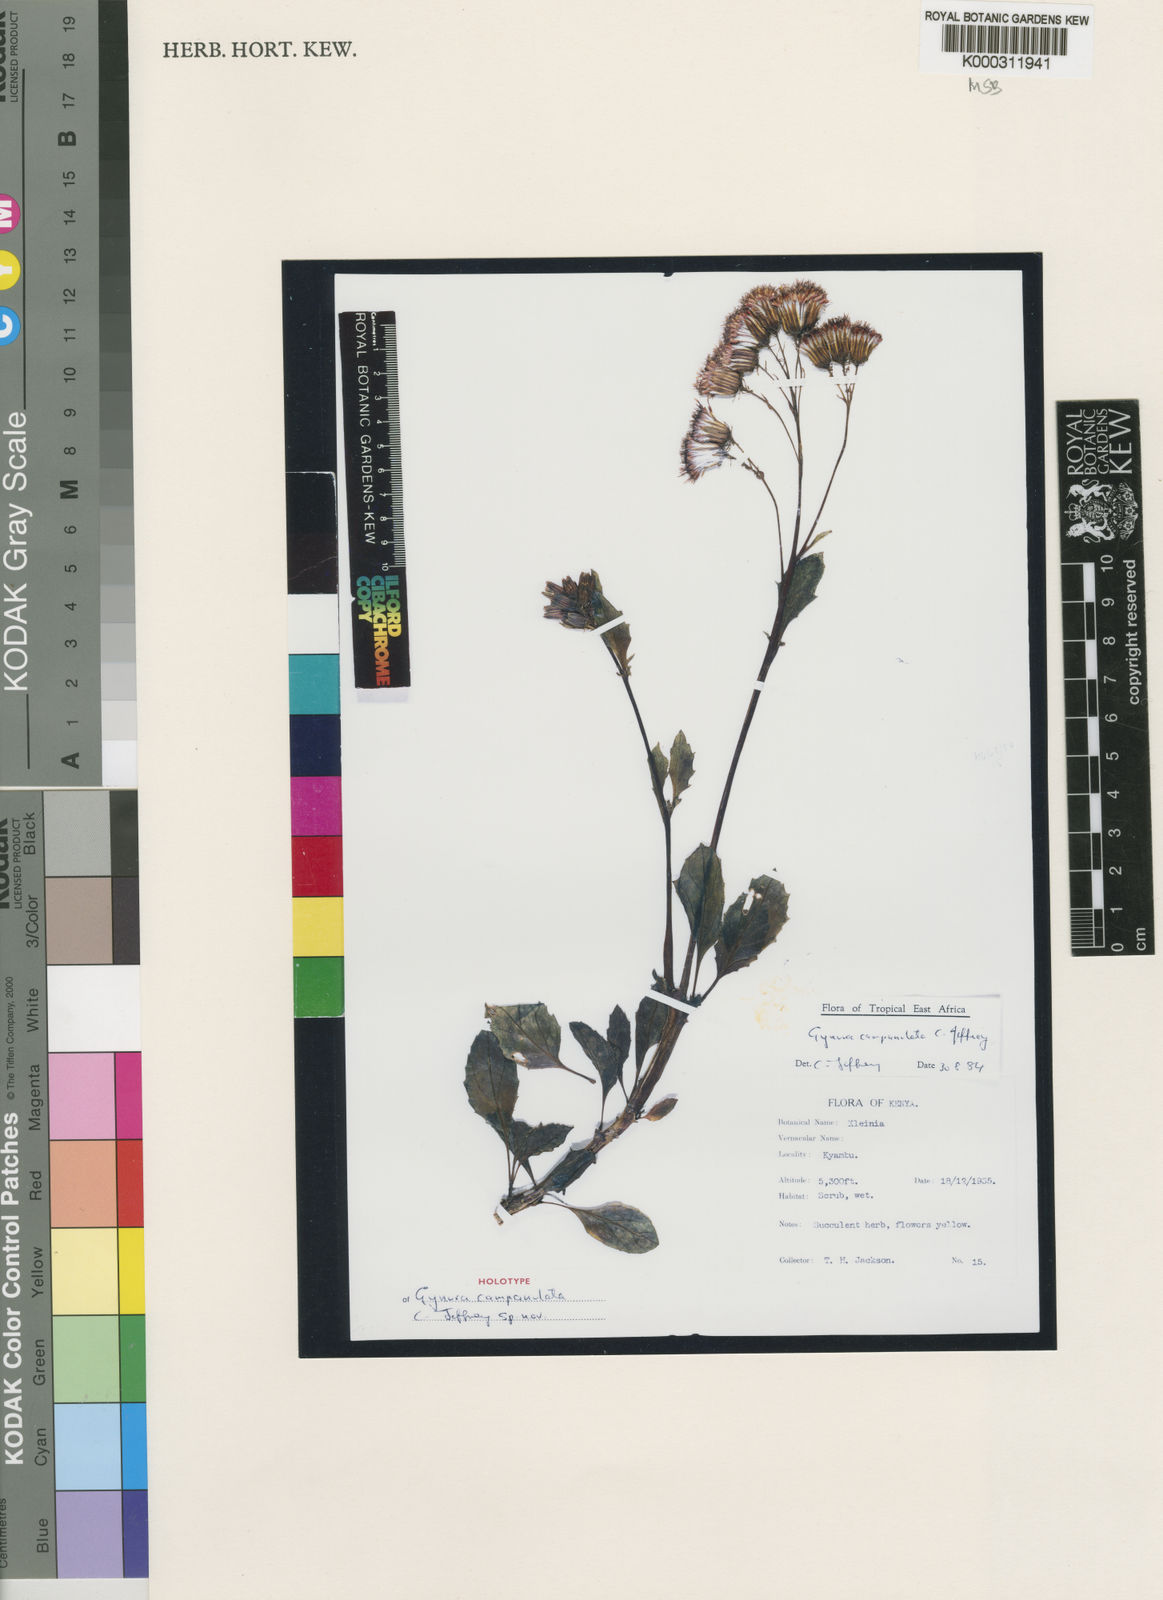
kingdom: Plantae
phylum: Tracheophyta
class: Magnoliopsida
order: Asterales
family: Asteraceae
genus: Gynura
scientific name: Gynura campanulata
